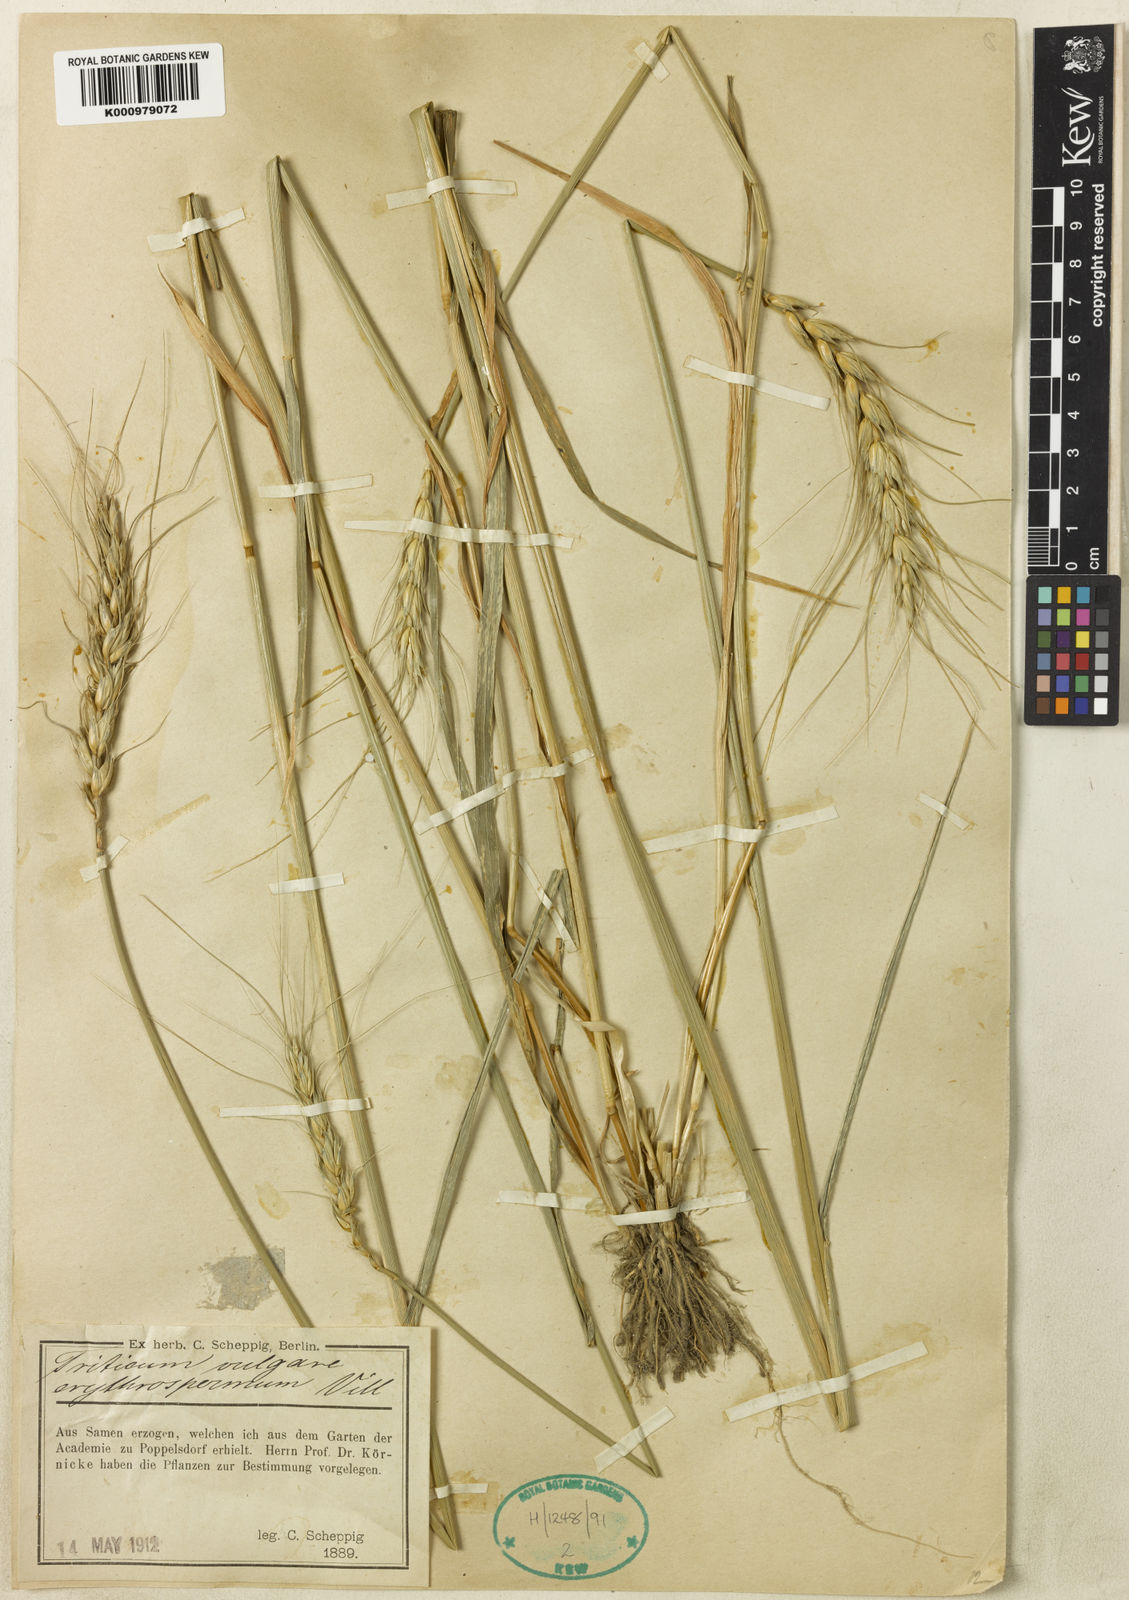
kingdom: Plantae
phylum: Tracheophyta
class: Liliopsida
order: Poales
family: Poaceae
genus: Triticum
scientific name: Triticum aestivum
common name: Common wheat
